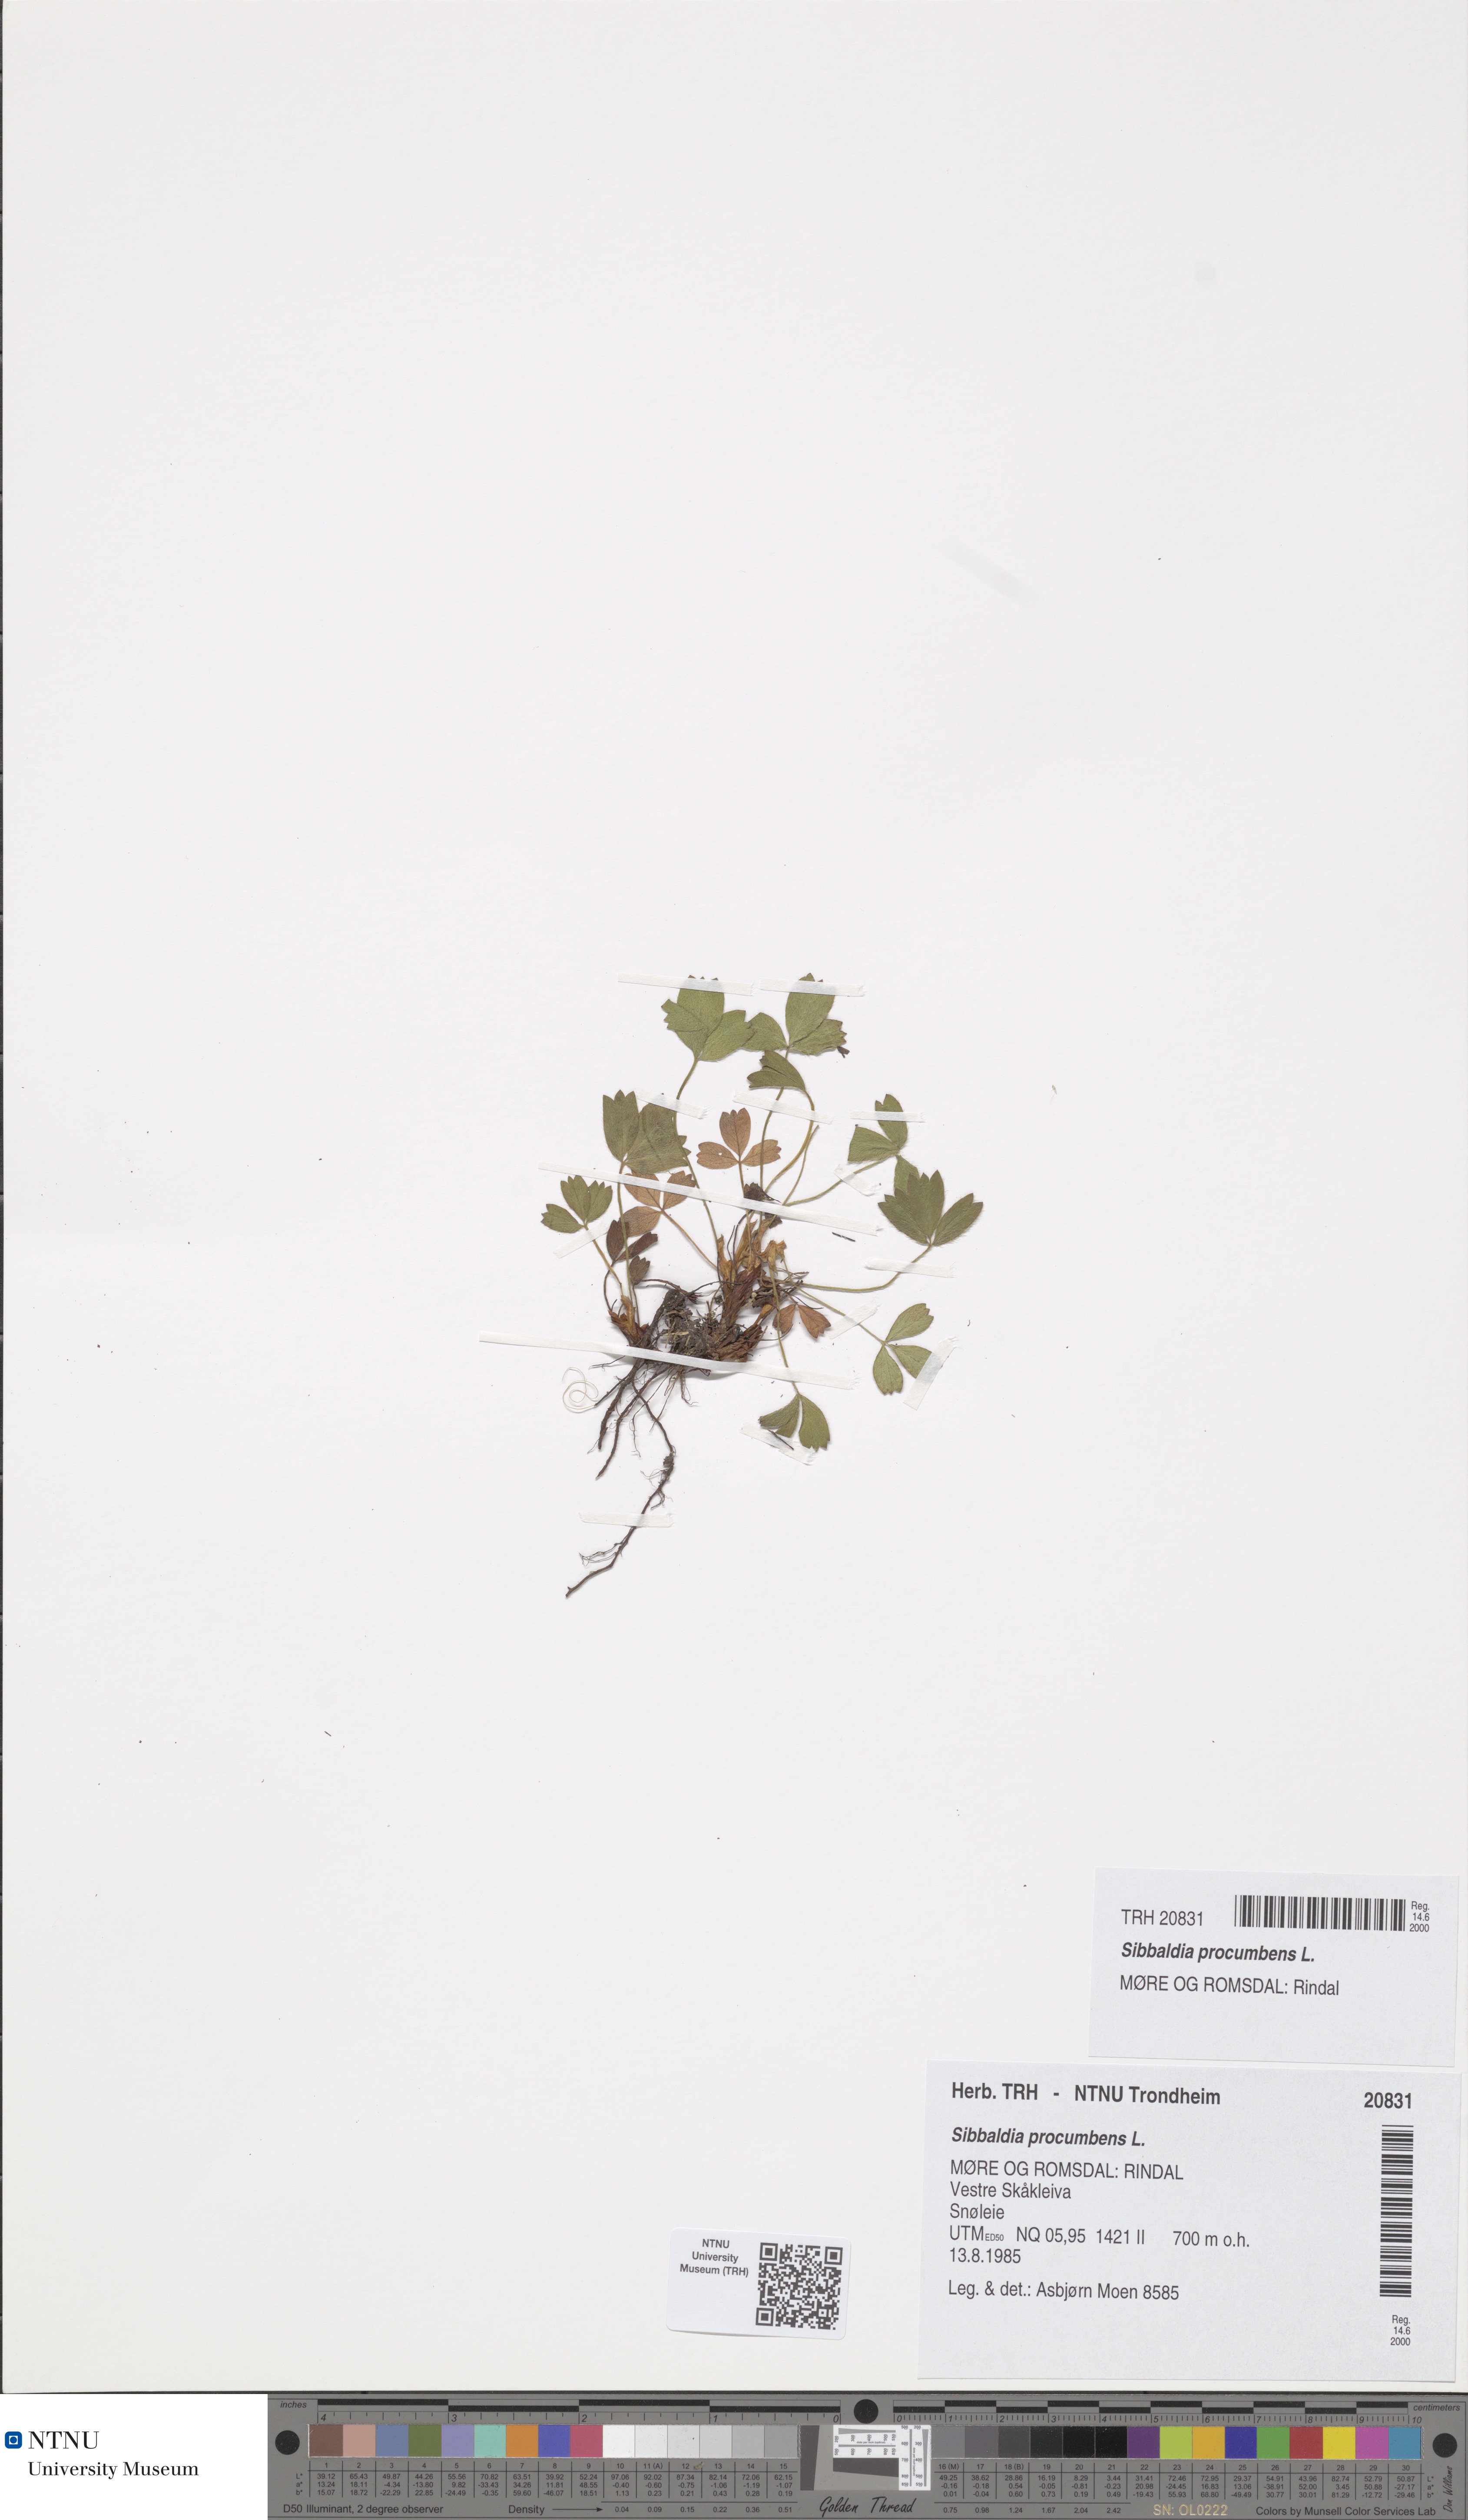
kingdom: Plantae
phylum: Tracheophyta
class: Magnoliopsida
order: Rosales
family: Rosaceae
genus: Sibbaldia
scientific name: Sibbaldia procumbens
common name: Creeping sibbaldia
